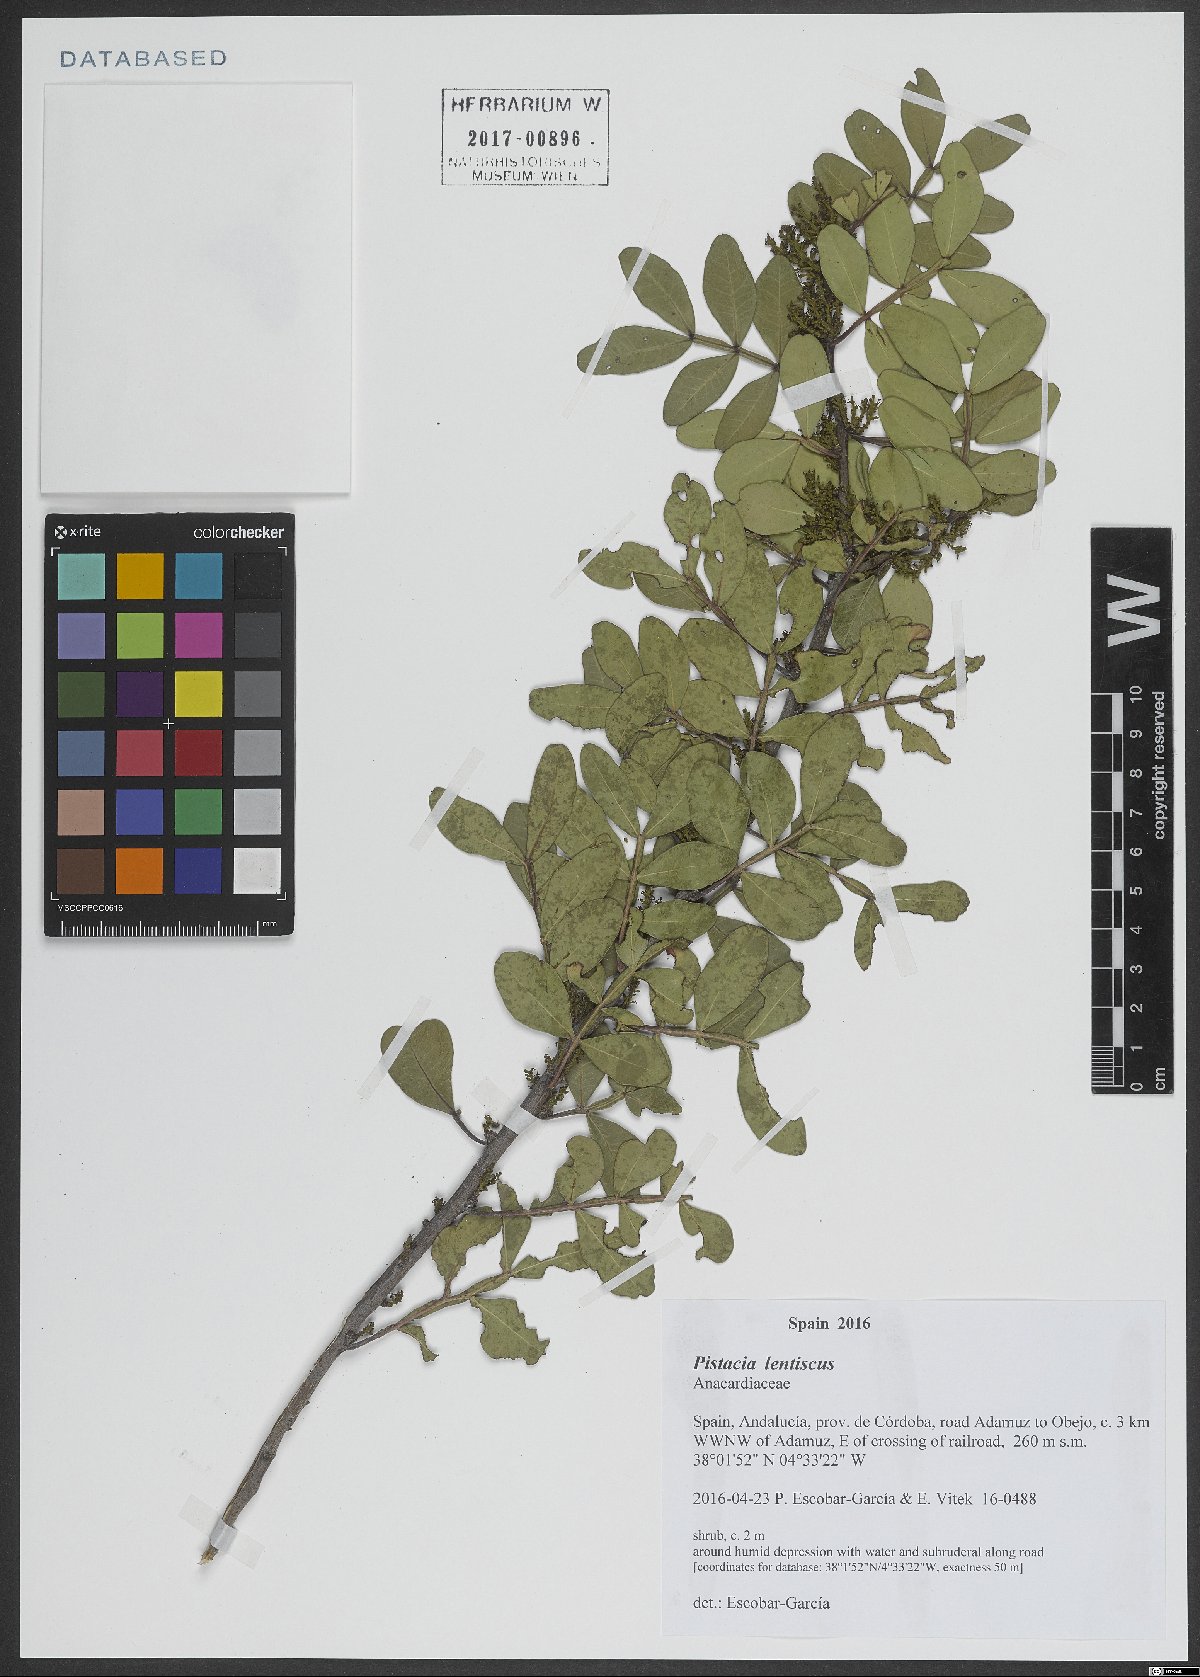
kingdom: Plantae
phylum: Tracheophyta
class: Magnoliopsida
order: Sapindales
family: Anacardiaceae
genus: Pistacia
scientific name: Pistacia lentiscus
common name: Lentisk
